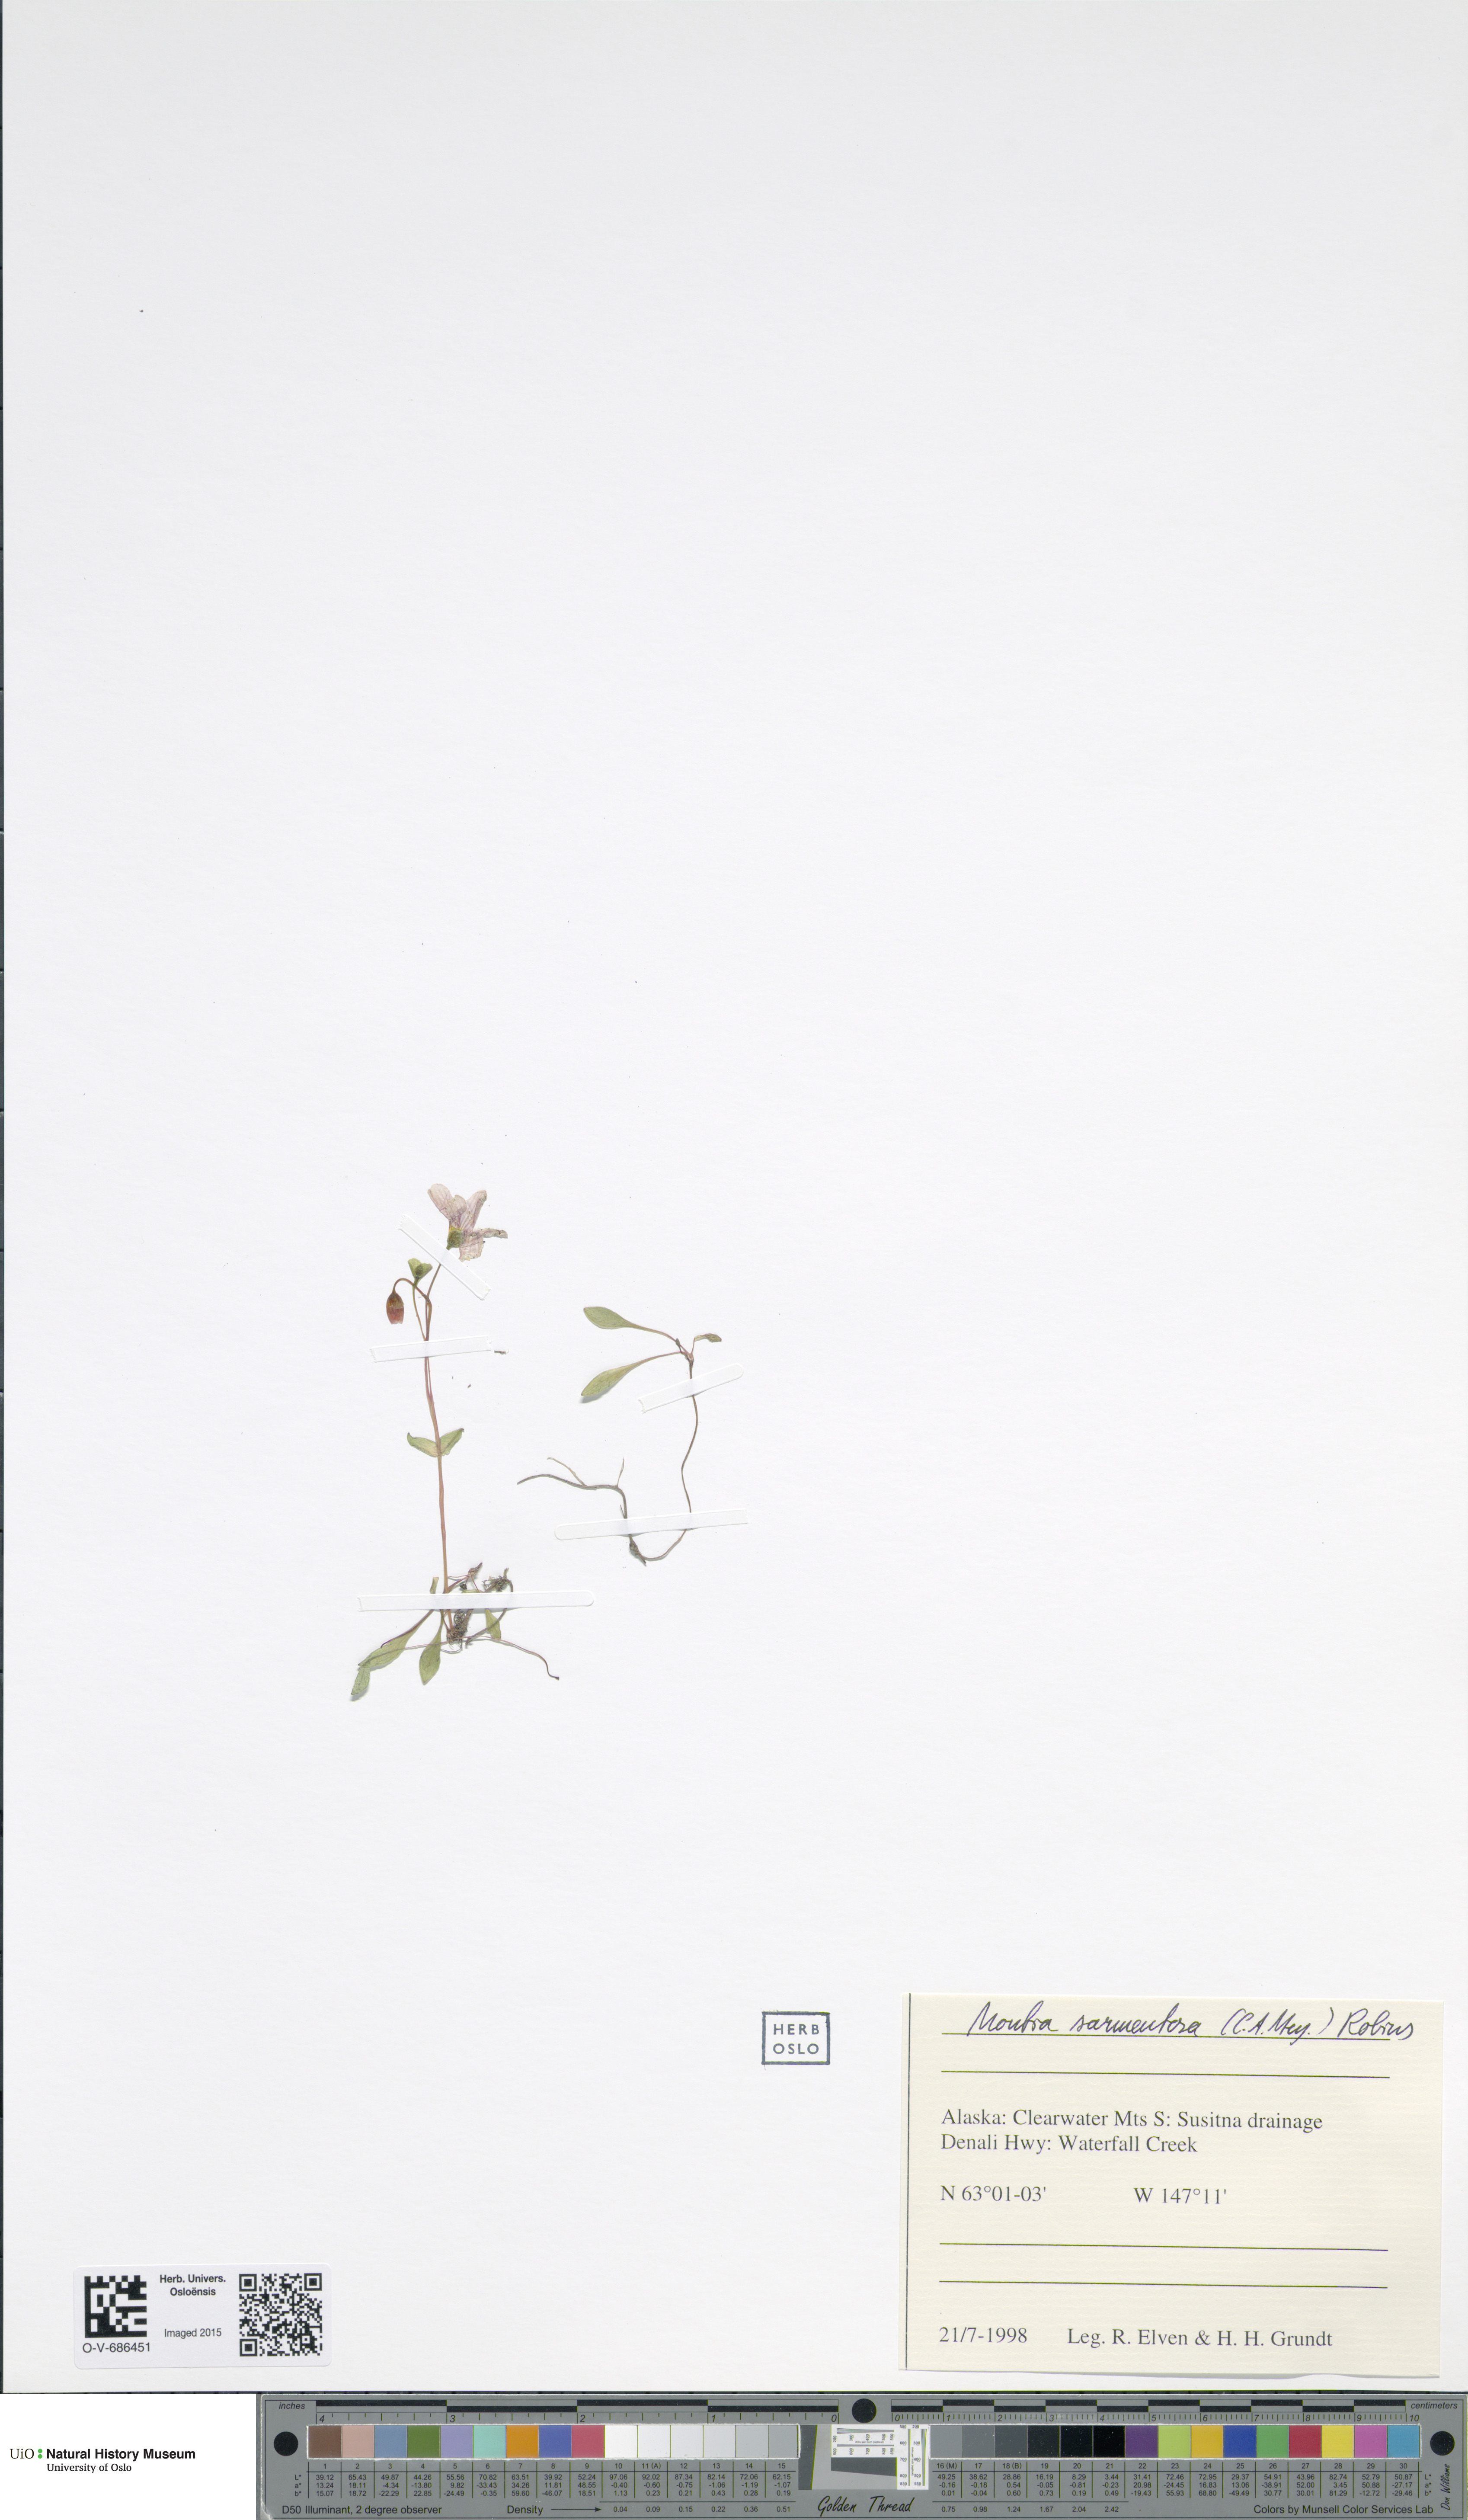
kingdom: Plantae
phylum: Tracheophyta
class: Magnoliopsida
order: Caryophyllales
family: Montiaceae
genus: Claytonia
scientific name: Claytonia sarmentosa
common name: Alaska spring beauty
